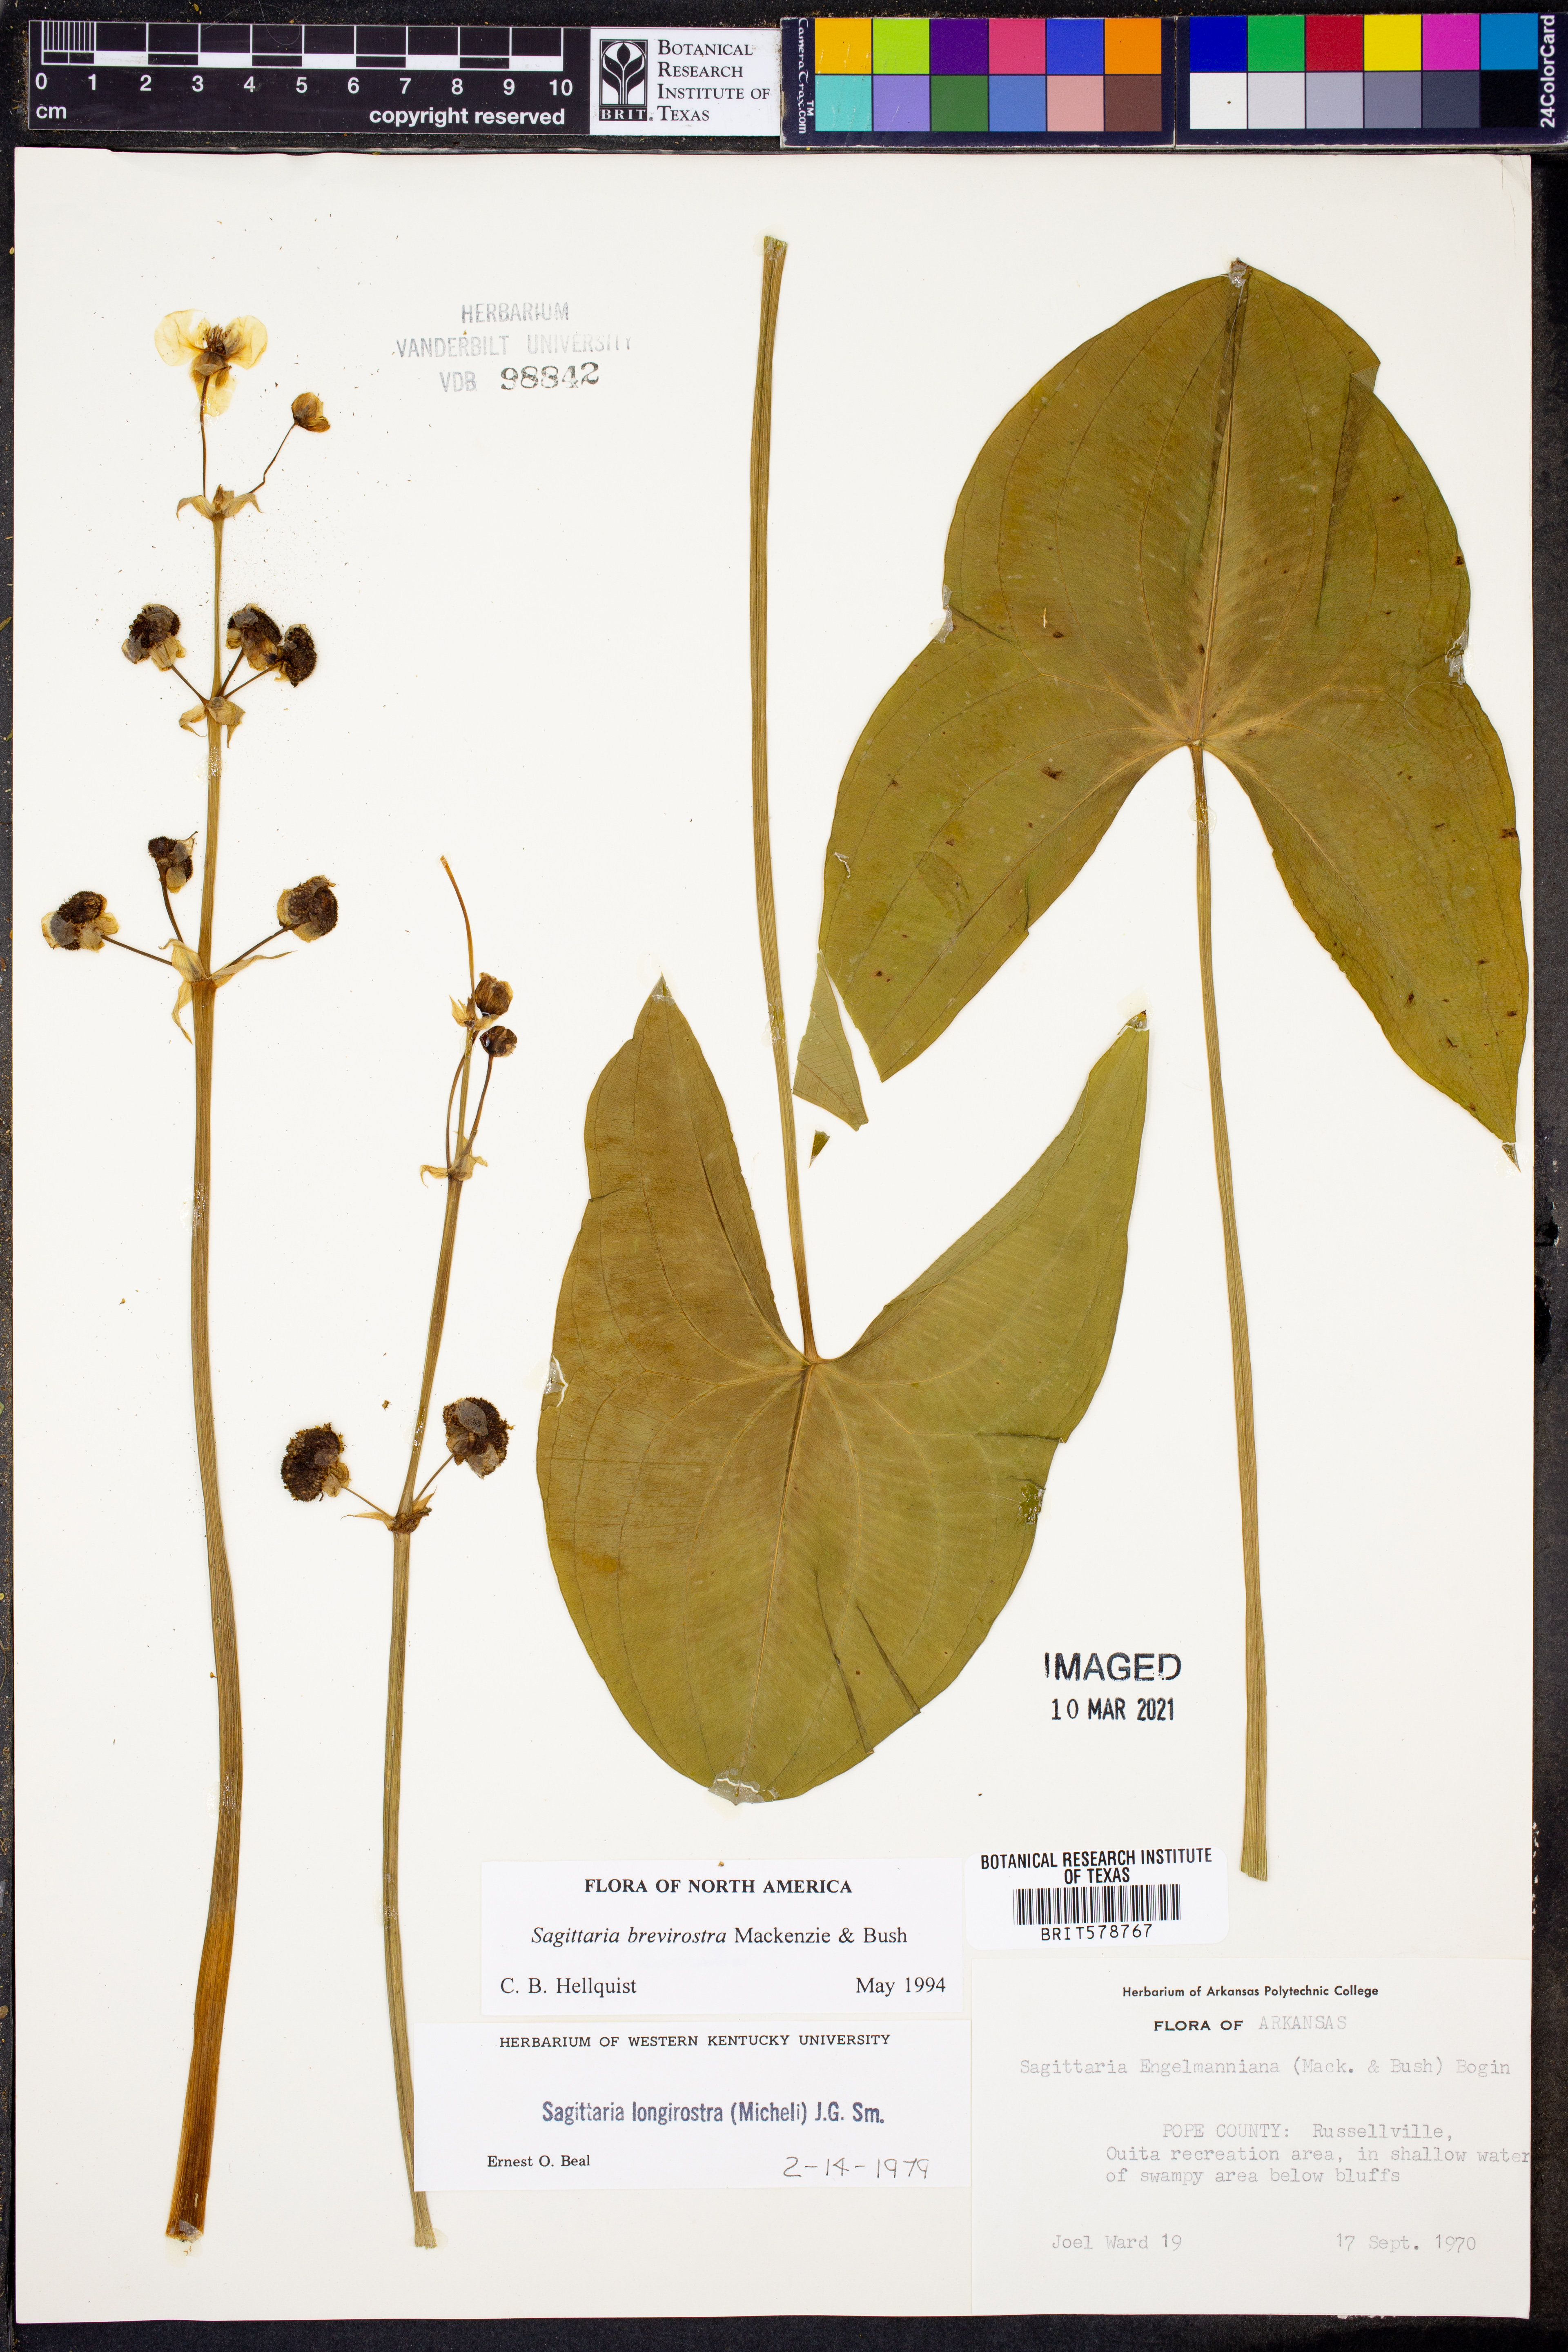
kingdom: Plantae
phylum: Tracheophyta
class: Liliopsida
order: Alismatales
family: Alismataceae
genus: Sagittaria
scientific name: Sagittaria brevirostra
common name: Midwestern arrowhead
